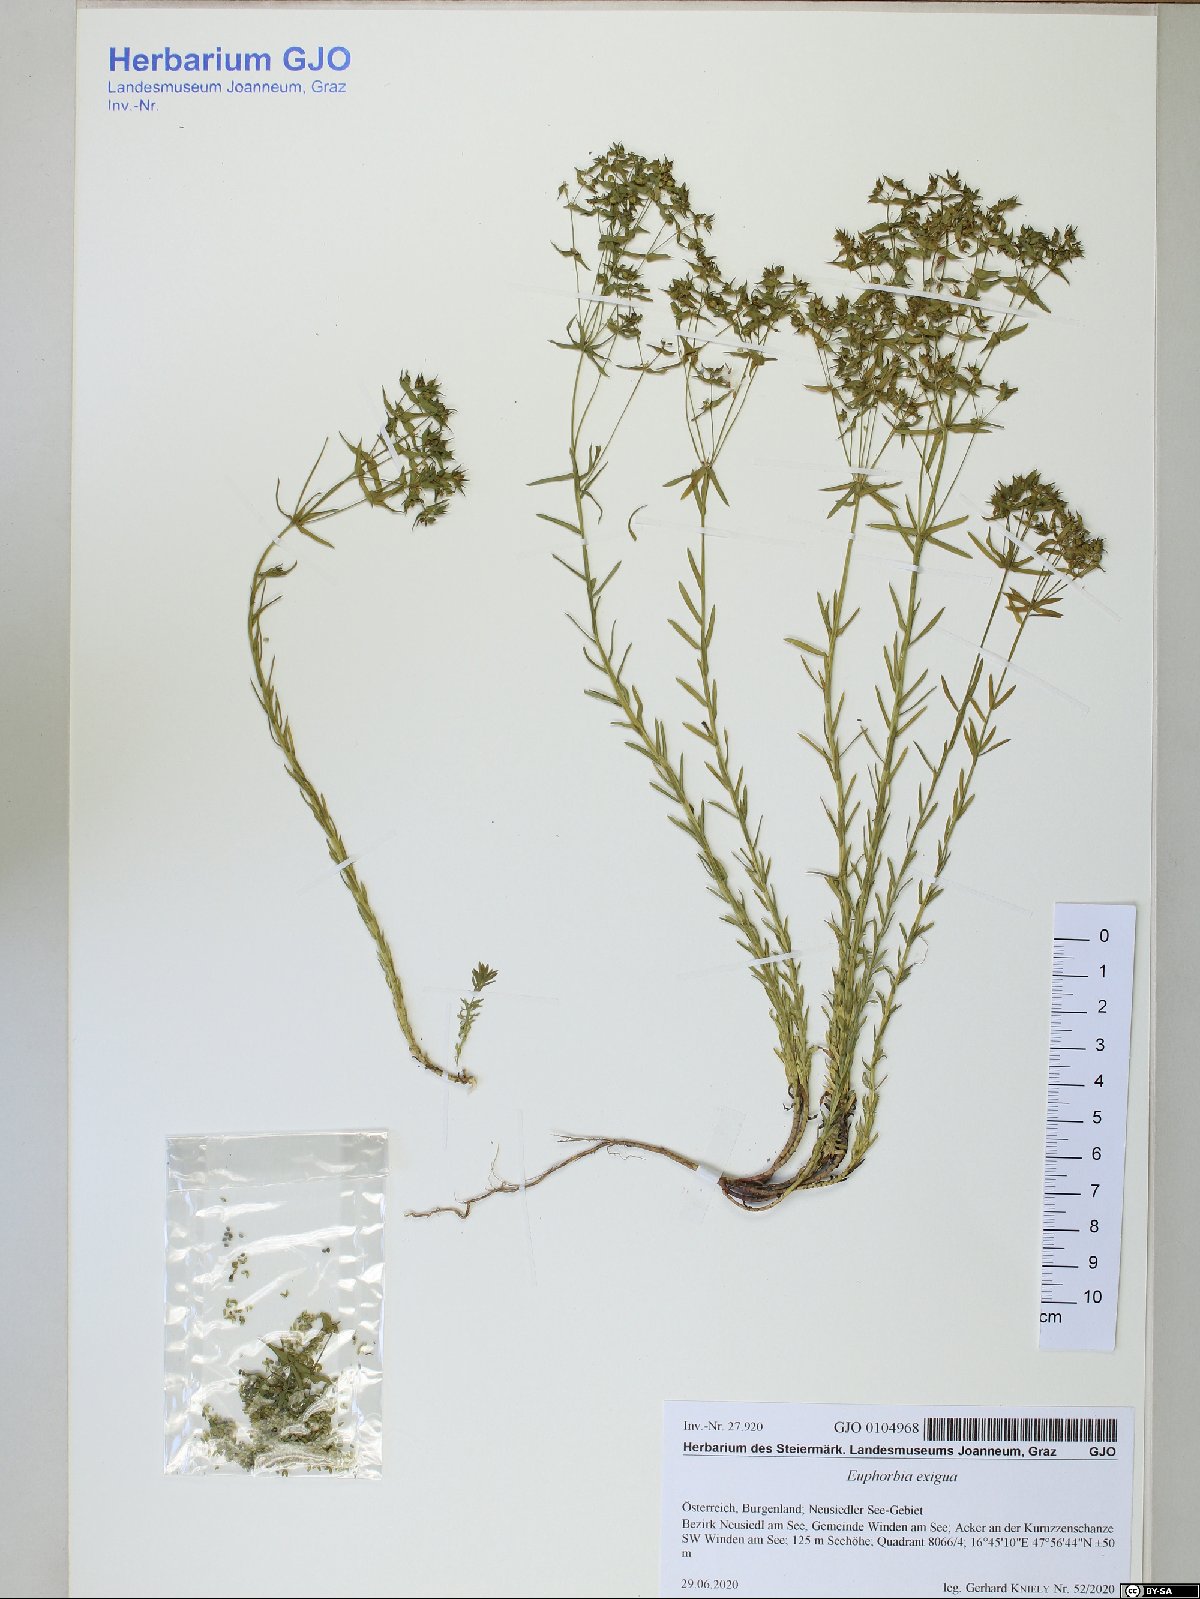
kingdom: Plantae
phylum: Tracheophyta
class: Magnoliopsida
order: Malpighiales
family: Euphorbiaceae
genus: Euphorbia
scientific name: Euphorbia exigua
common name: Dwarf spurge
